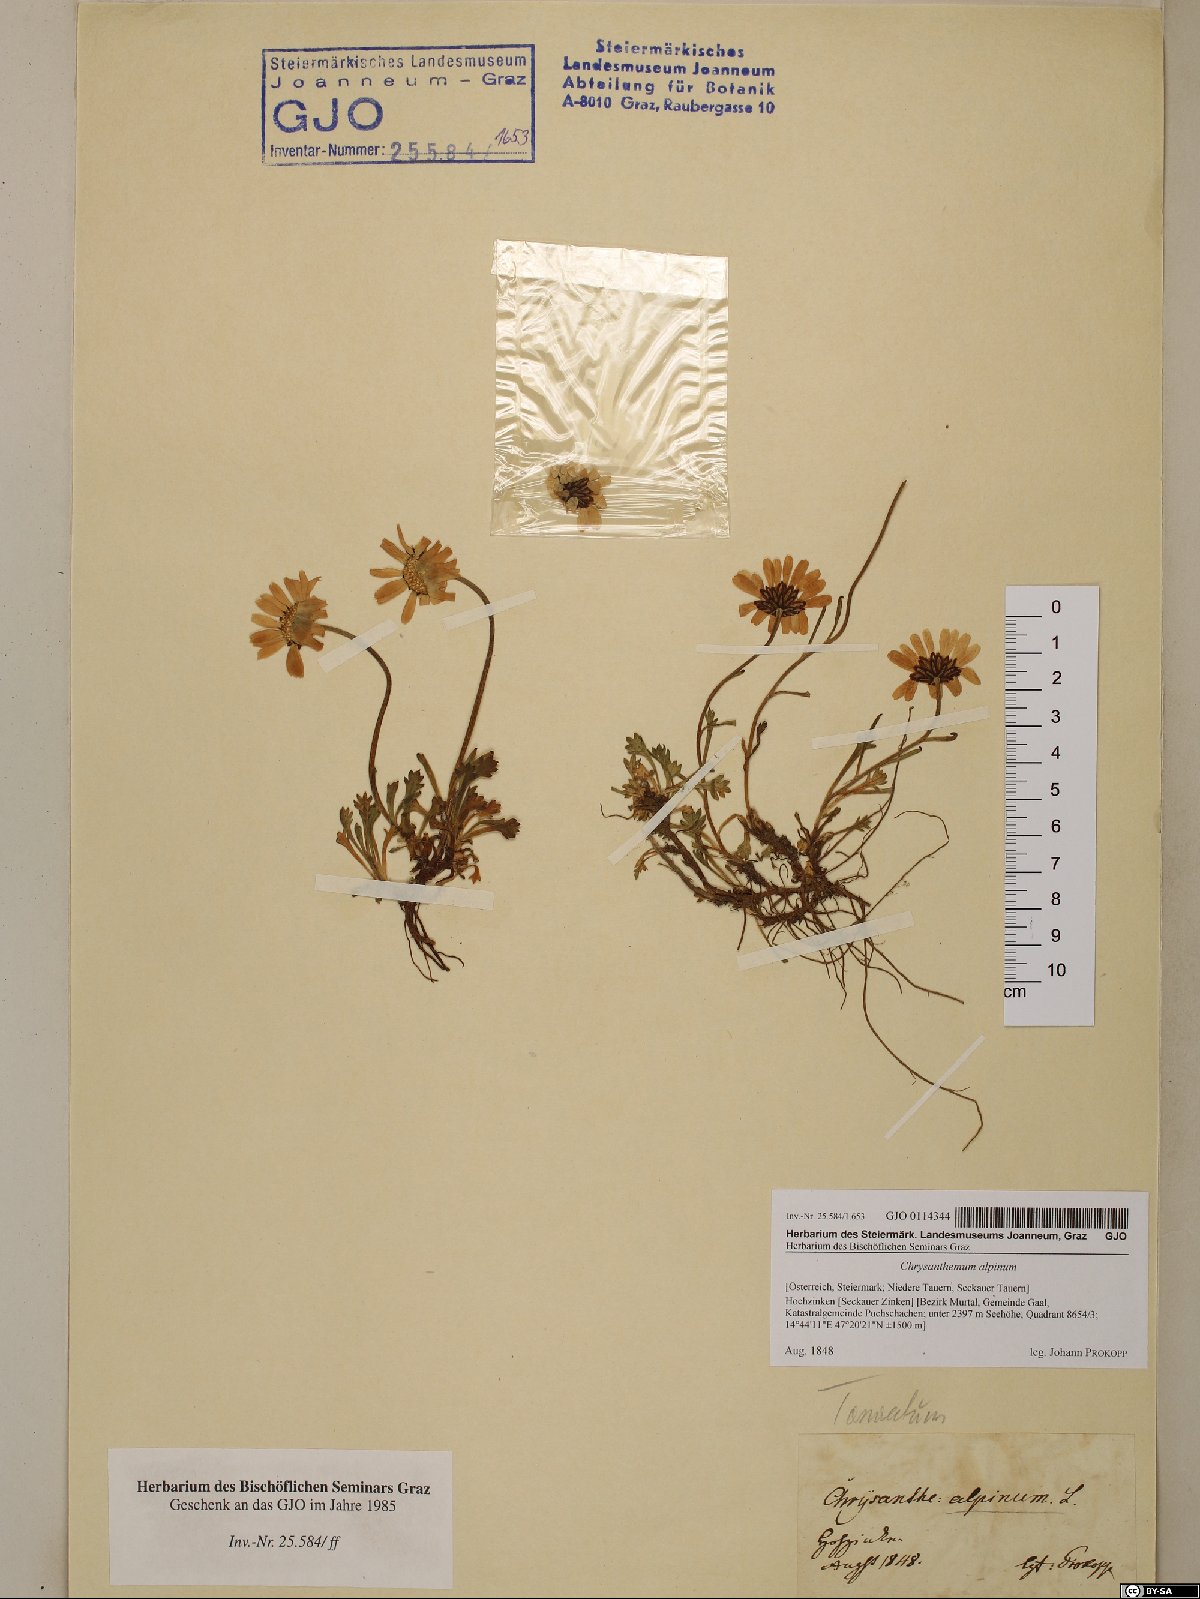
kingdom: Plantae
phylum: Tracheophyta
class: Magnoliopsida
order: Asterales
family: Asteraceae
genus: Leucanthemopsis
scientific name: Leucanthemopsis alpina
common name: Alpine moon daisy
